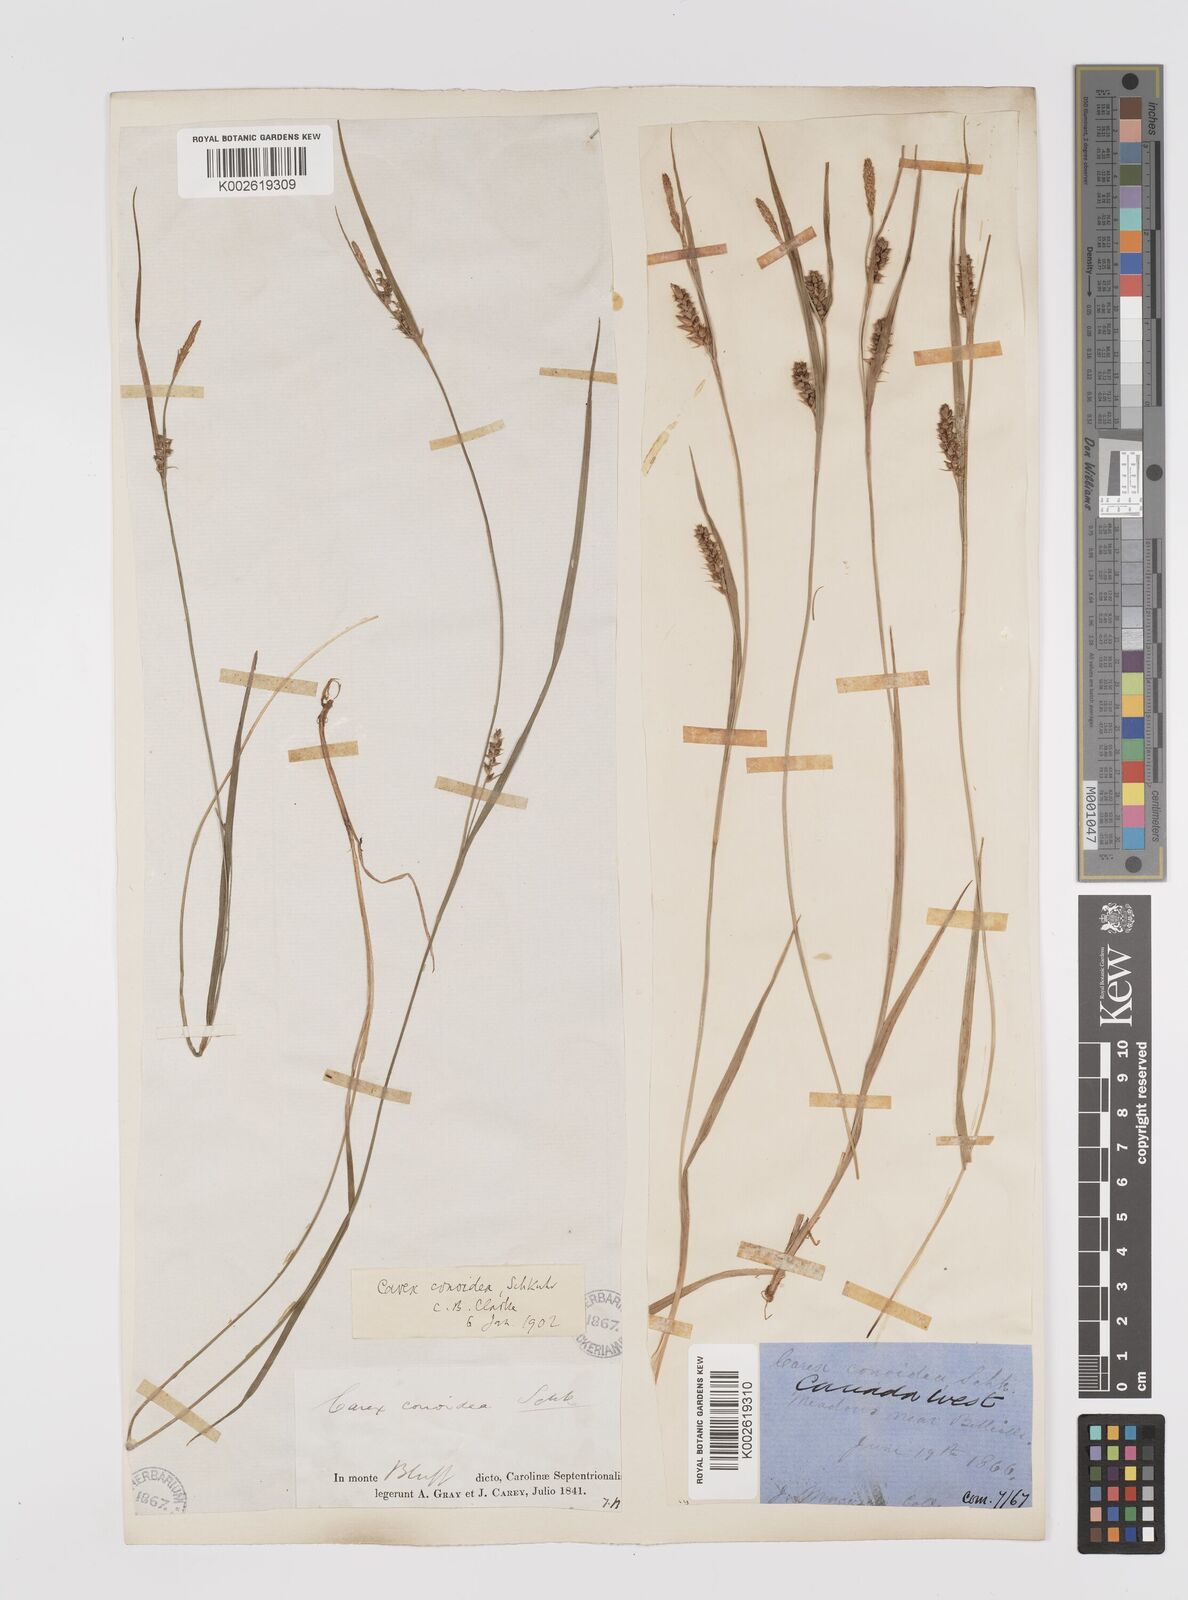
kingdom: Plantae
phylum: Tracheophyta
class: Liliopsida
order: Poales
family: Cyperaceae
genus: Carex
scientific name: Carex conoidea
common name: Cone shaped sedge
